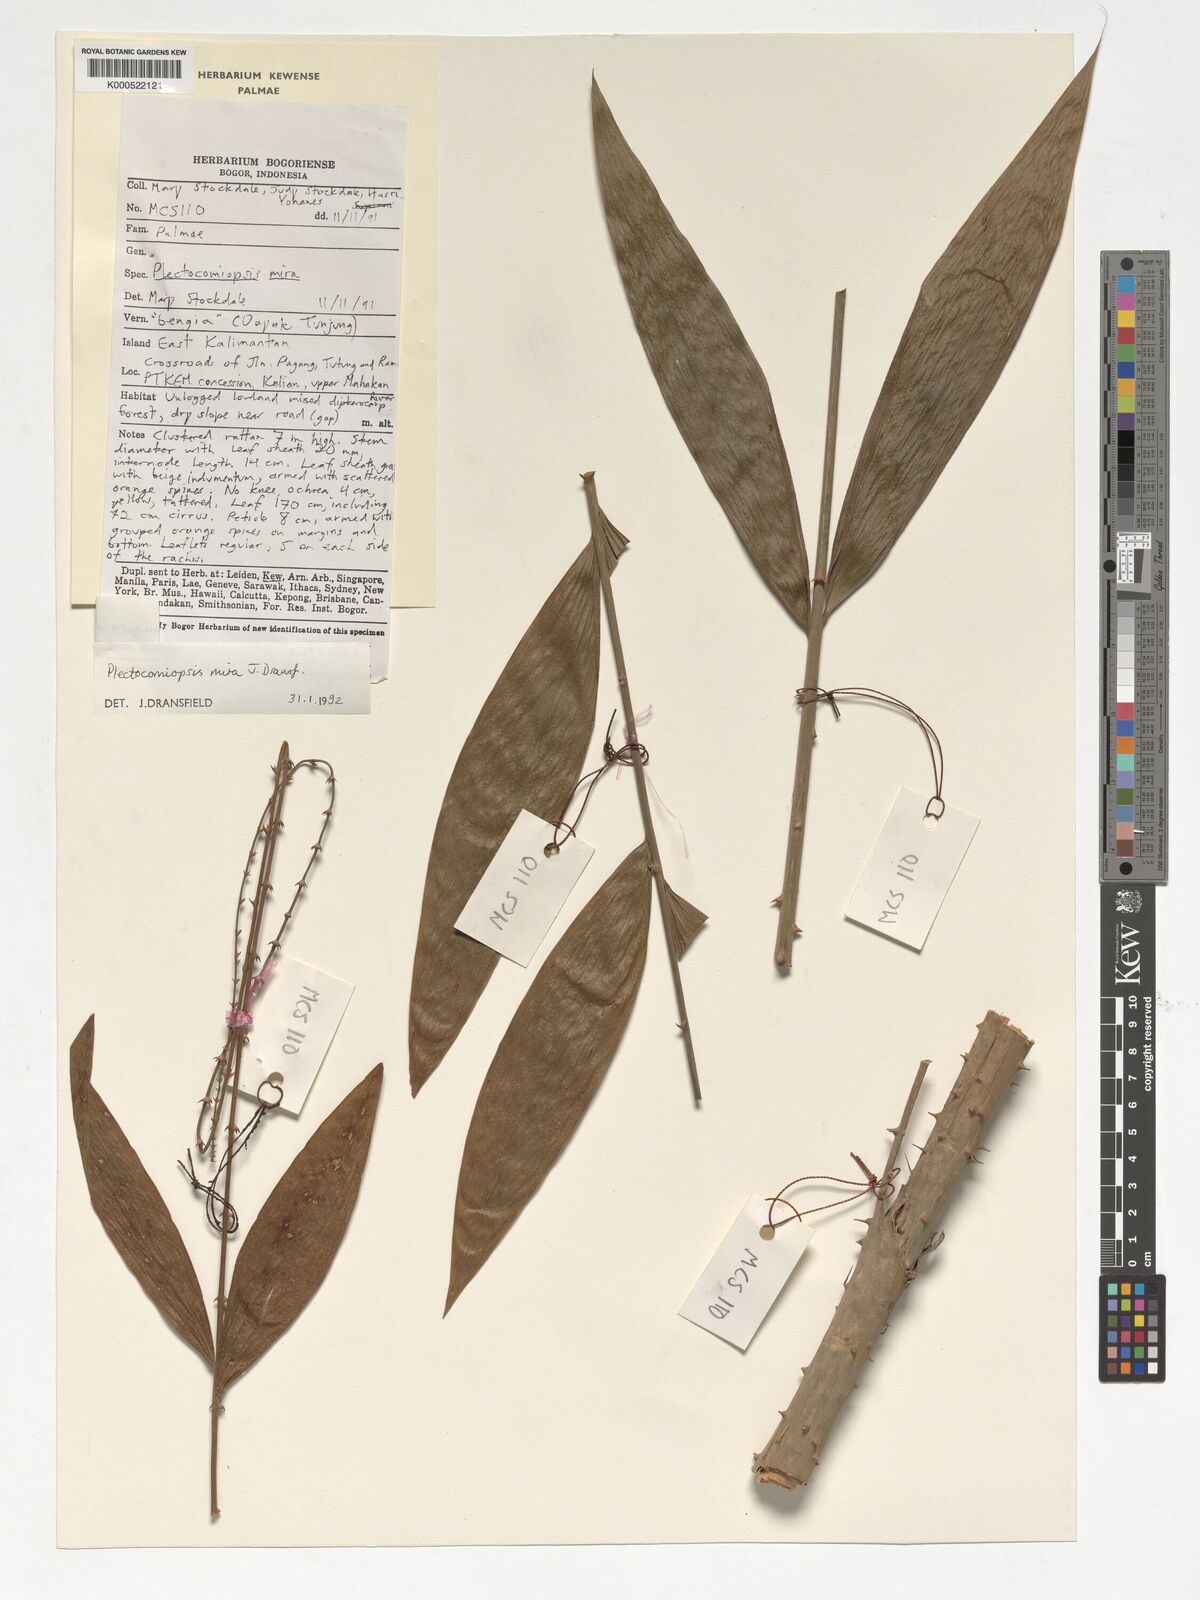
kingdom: Plantae
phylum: Tracheophyta
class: Liliopsida
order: Arecales
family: Arecaceae
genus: Plectocomiopsis
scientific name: Plectocomiopsis mira
